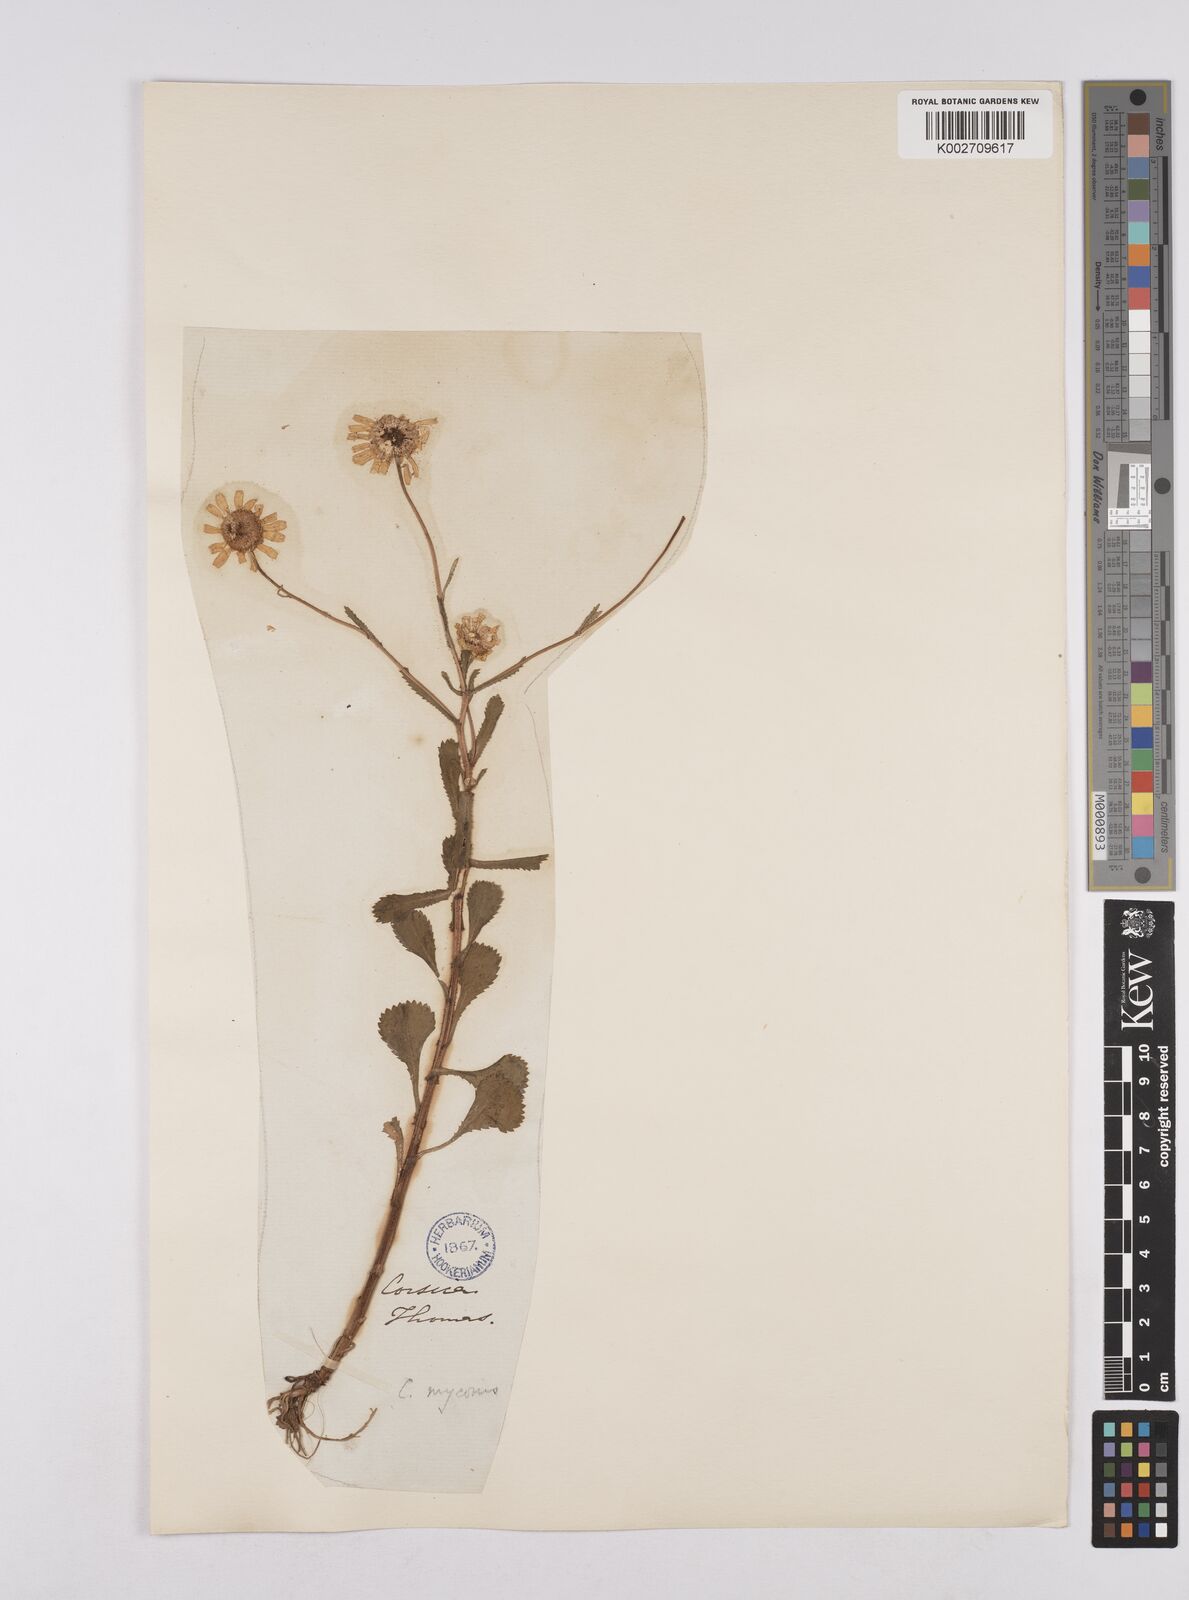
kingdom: Plantae
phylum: Tracheophyta
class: Magnoliopsida
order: Asterales
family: Asteraceae
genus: Coleostephus
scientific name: Coleostephus myconis
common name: Mediterranean marigold
